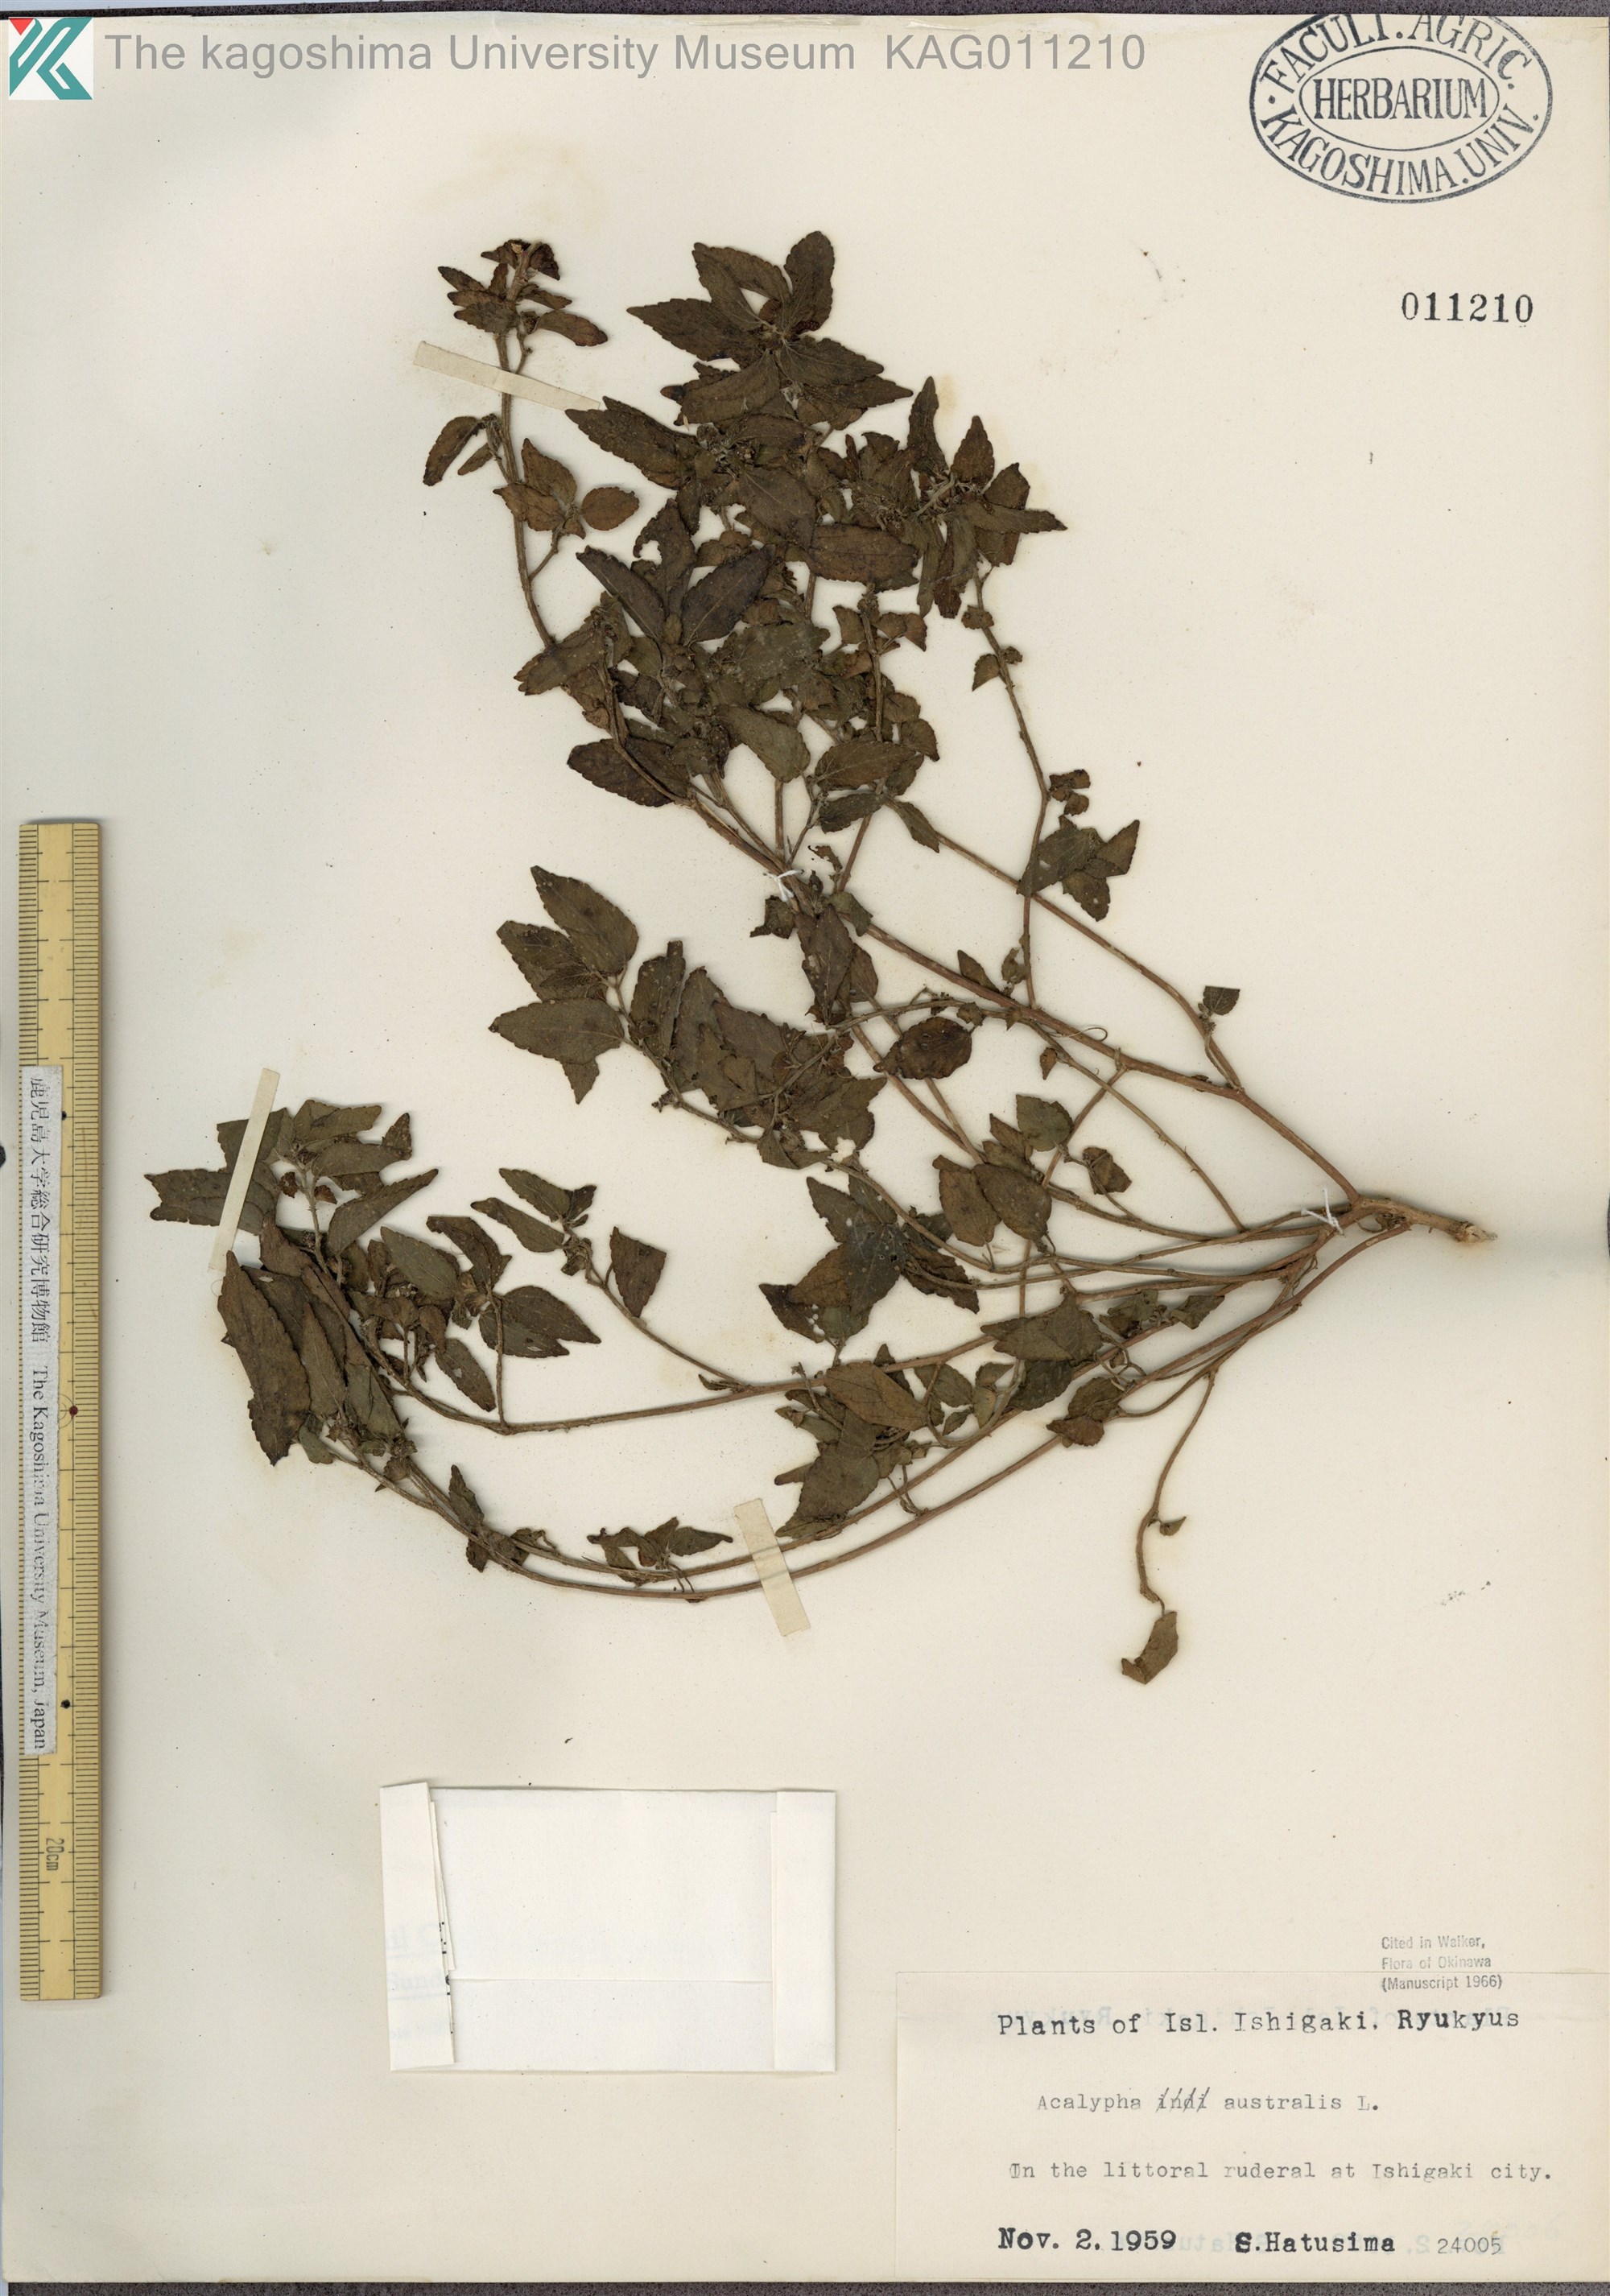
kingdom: Plantae
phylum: Tracheophyta
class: Magnoliopsida
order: Malpighiales
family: Euphorbiaceae
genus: Acalypha
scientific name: Acalypha australis
